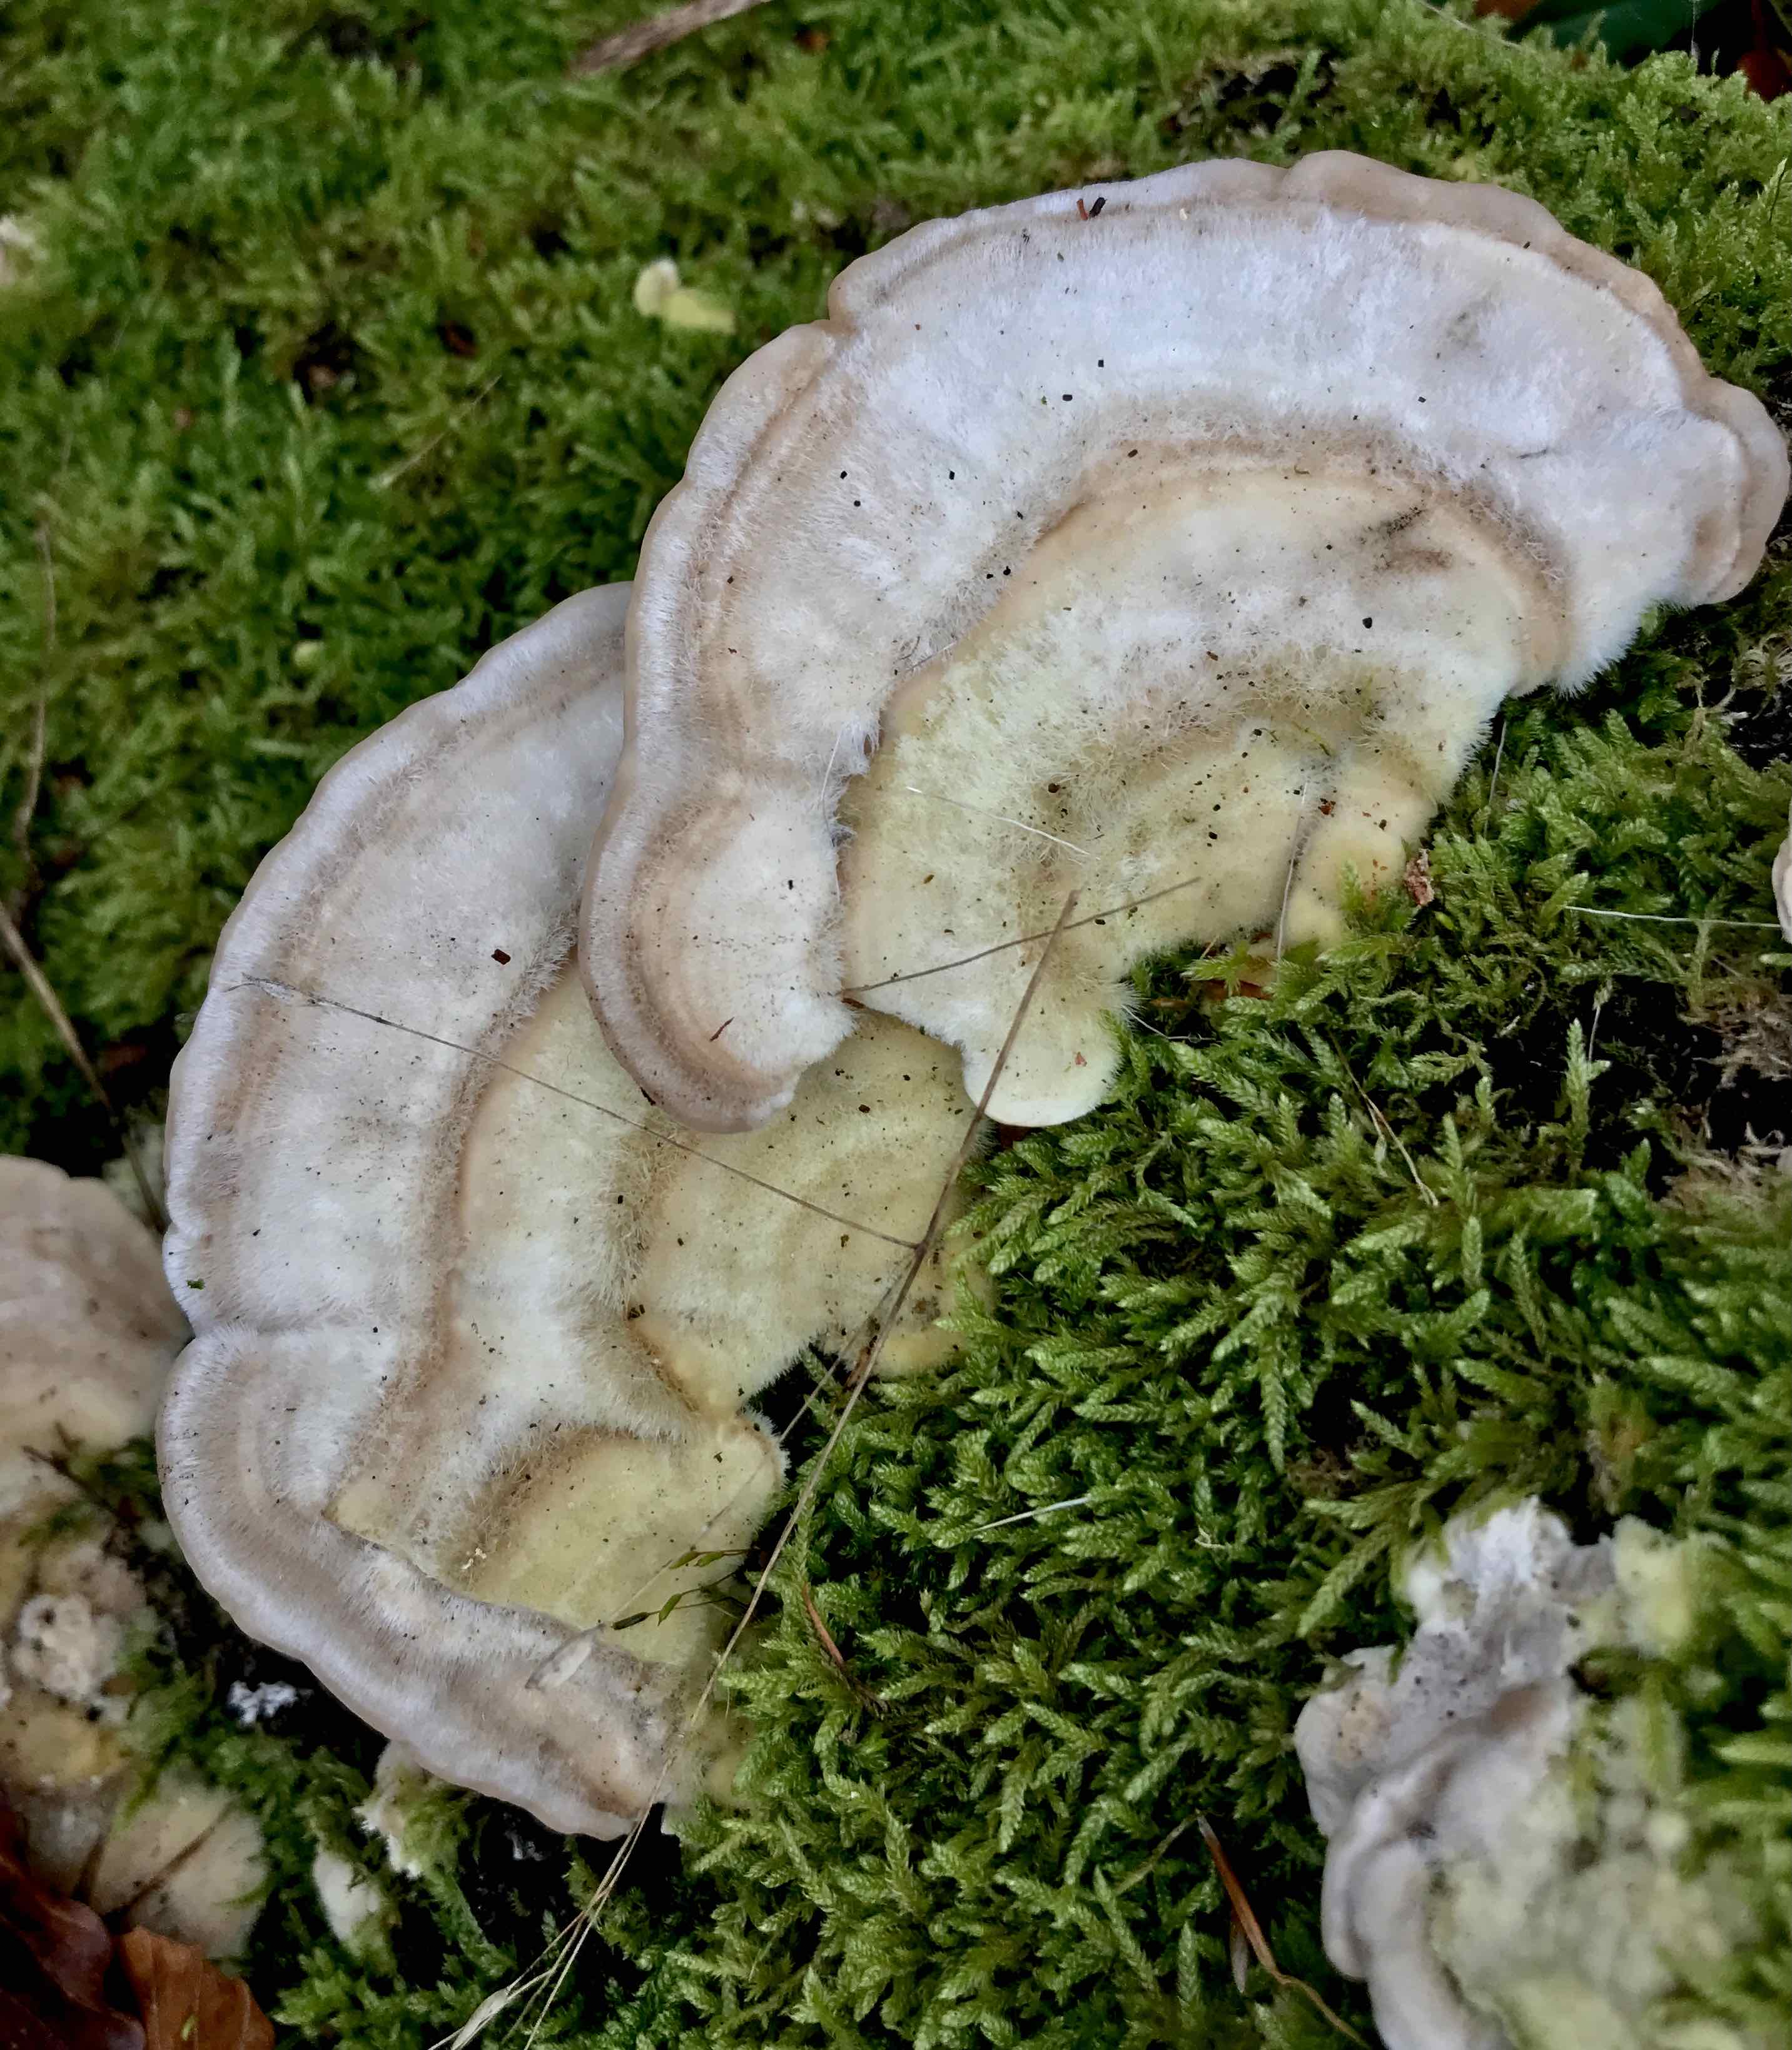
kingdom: Fungi
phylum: Basidiomycota
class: Agaricomycetes
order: Polyporales
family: Polyporaceae
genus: Trametes
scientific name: Trametes hirsuta
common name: håret læderporesvamp
